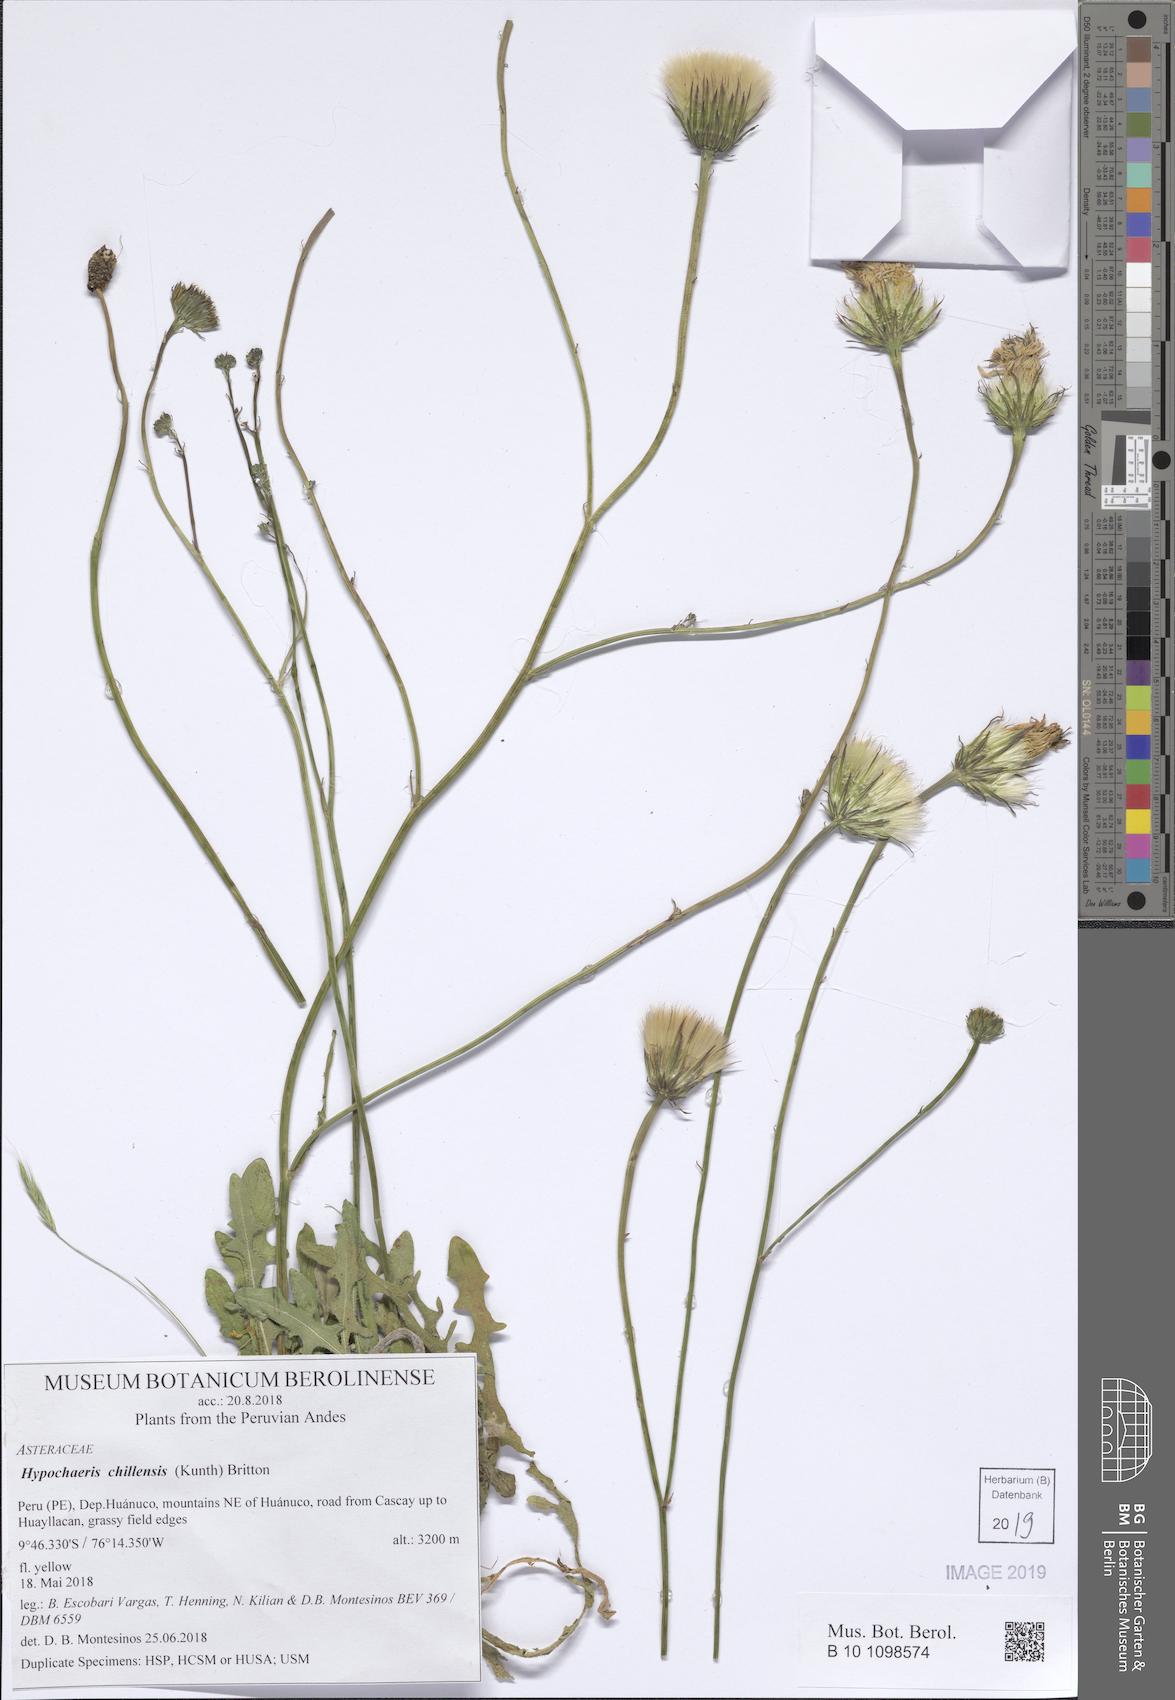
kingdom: Plantae
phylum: Tracheophyta
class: Magnoliopsida
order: Asterales
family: Asteraceae
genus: Hypochaeris
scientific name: Hypochaeris chillensis
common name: Brazilian cat's ear
